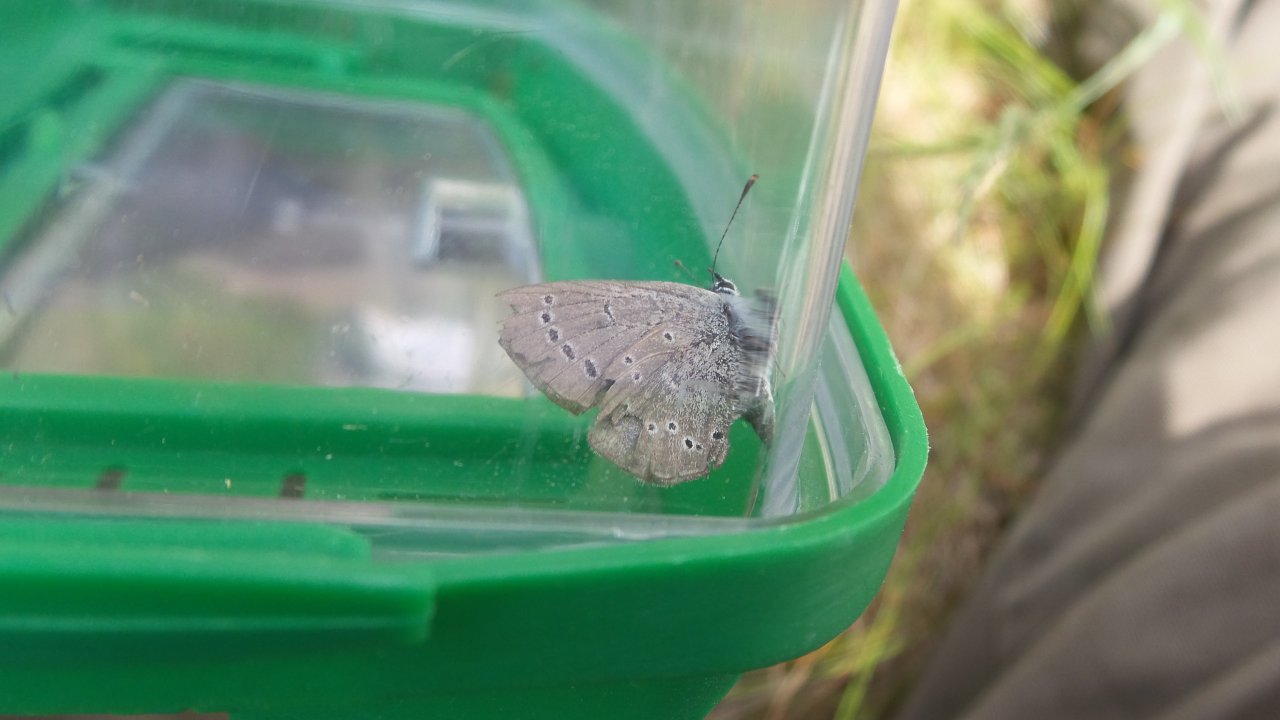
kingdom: Animalia
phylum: Arthropoda
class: Insecta
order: Lepidoptera
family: Lycaenidae
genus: Glaucopsyche
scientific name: Glaucopsyche lygdamus
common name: Silvery Blue
